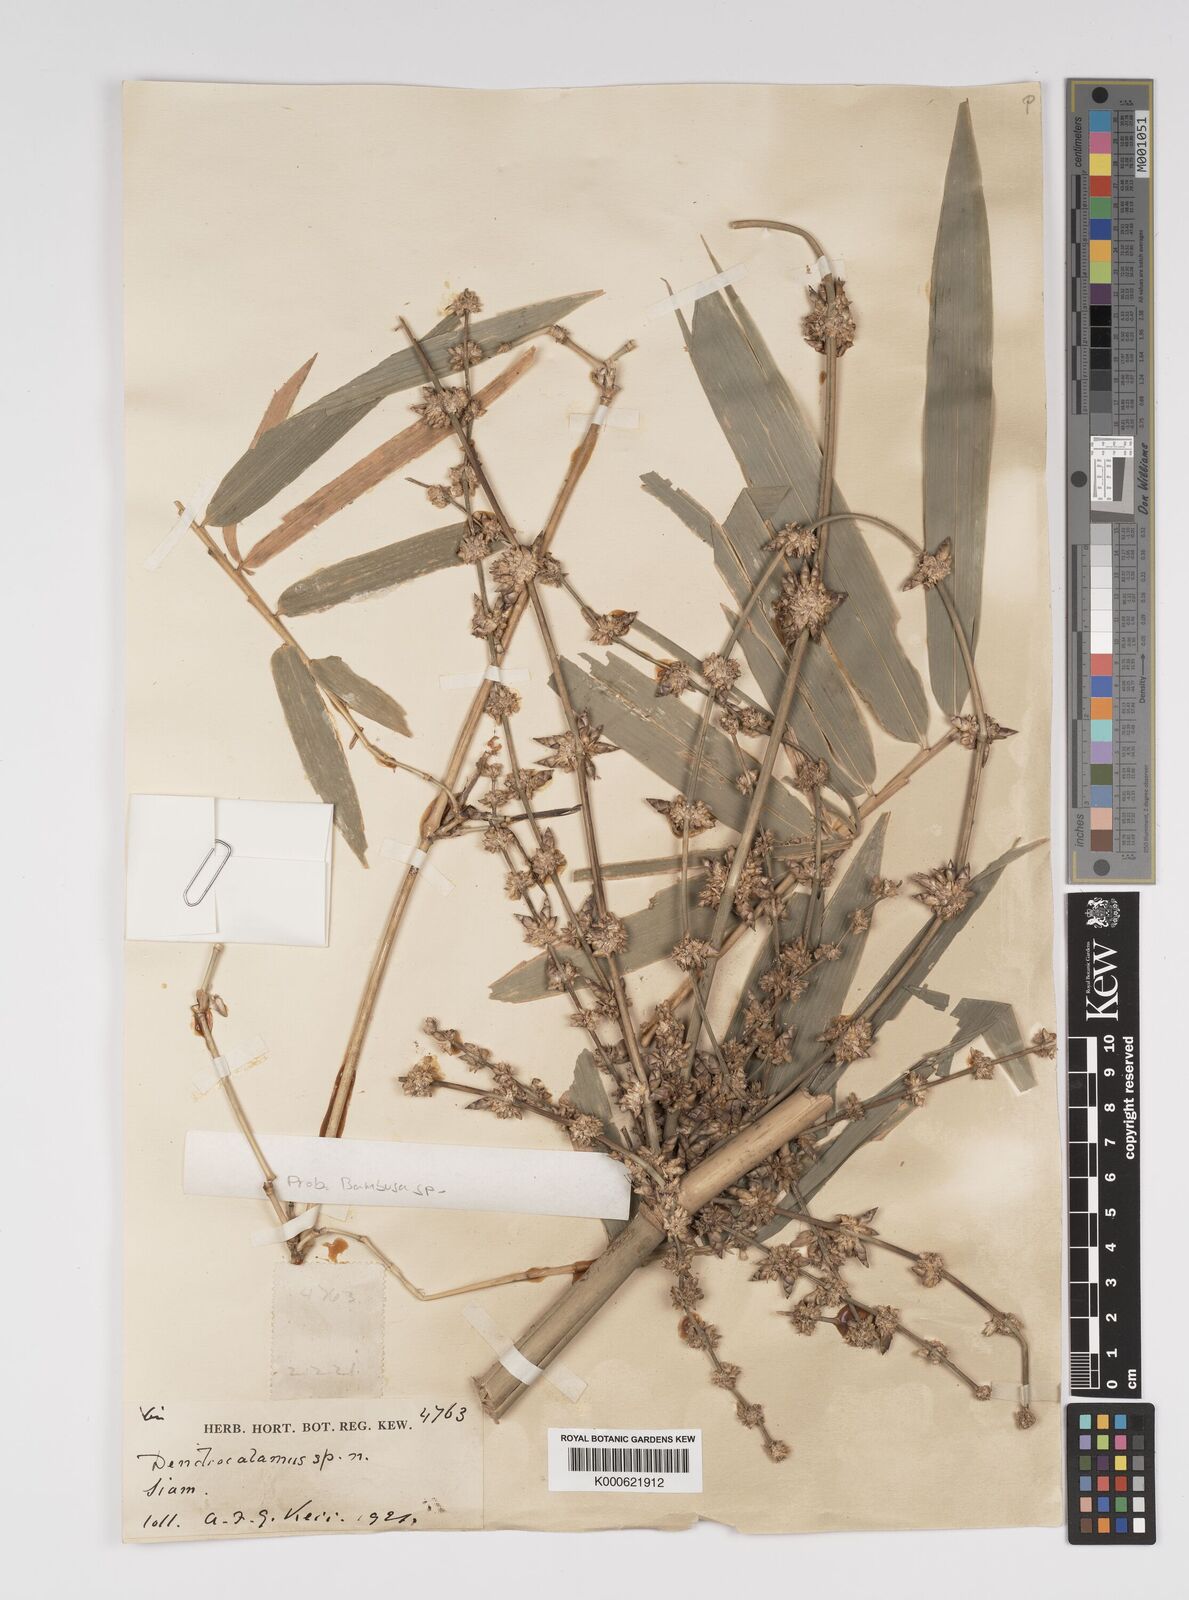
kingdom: Plantae
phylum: Tracheophyta
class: Liliopsida
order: Poales
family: Poaceae
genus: Bambusa
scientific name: Bambusa
